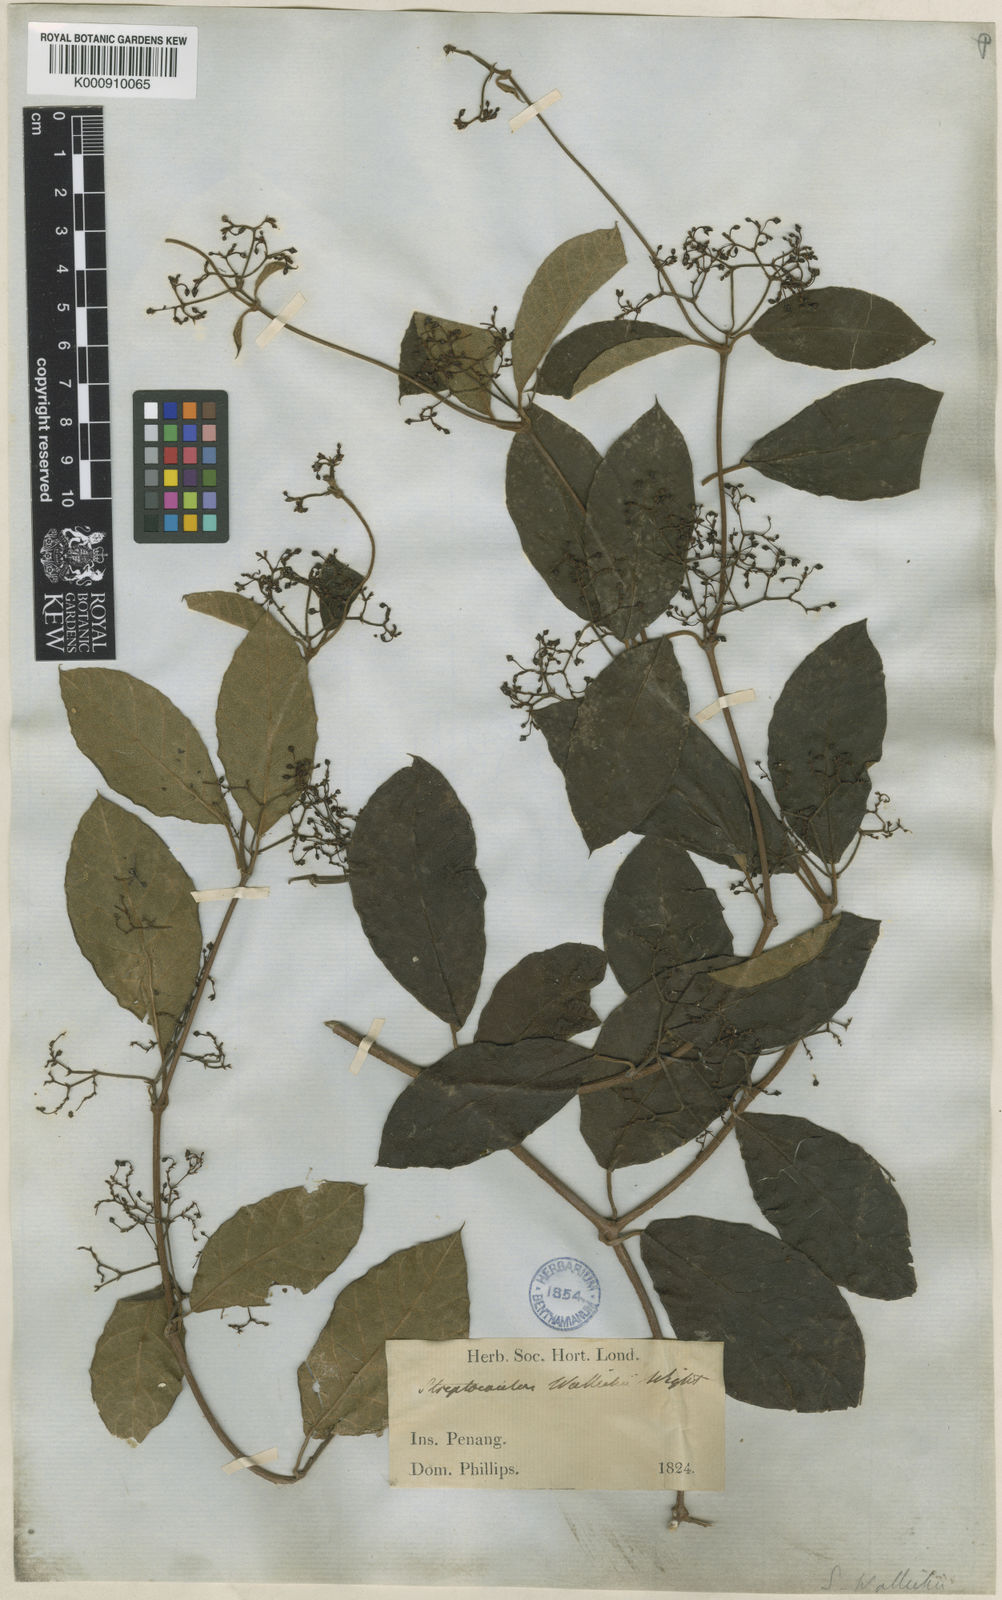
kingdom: Plantae
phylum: Tracheophyta
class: Magnoliopsida
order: Gentianales
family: Apocynaceae
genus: Streptocaulon
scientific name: Streptocaulon wallichii
